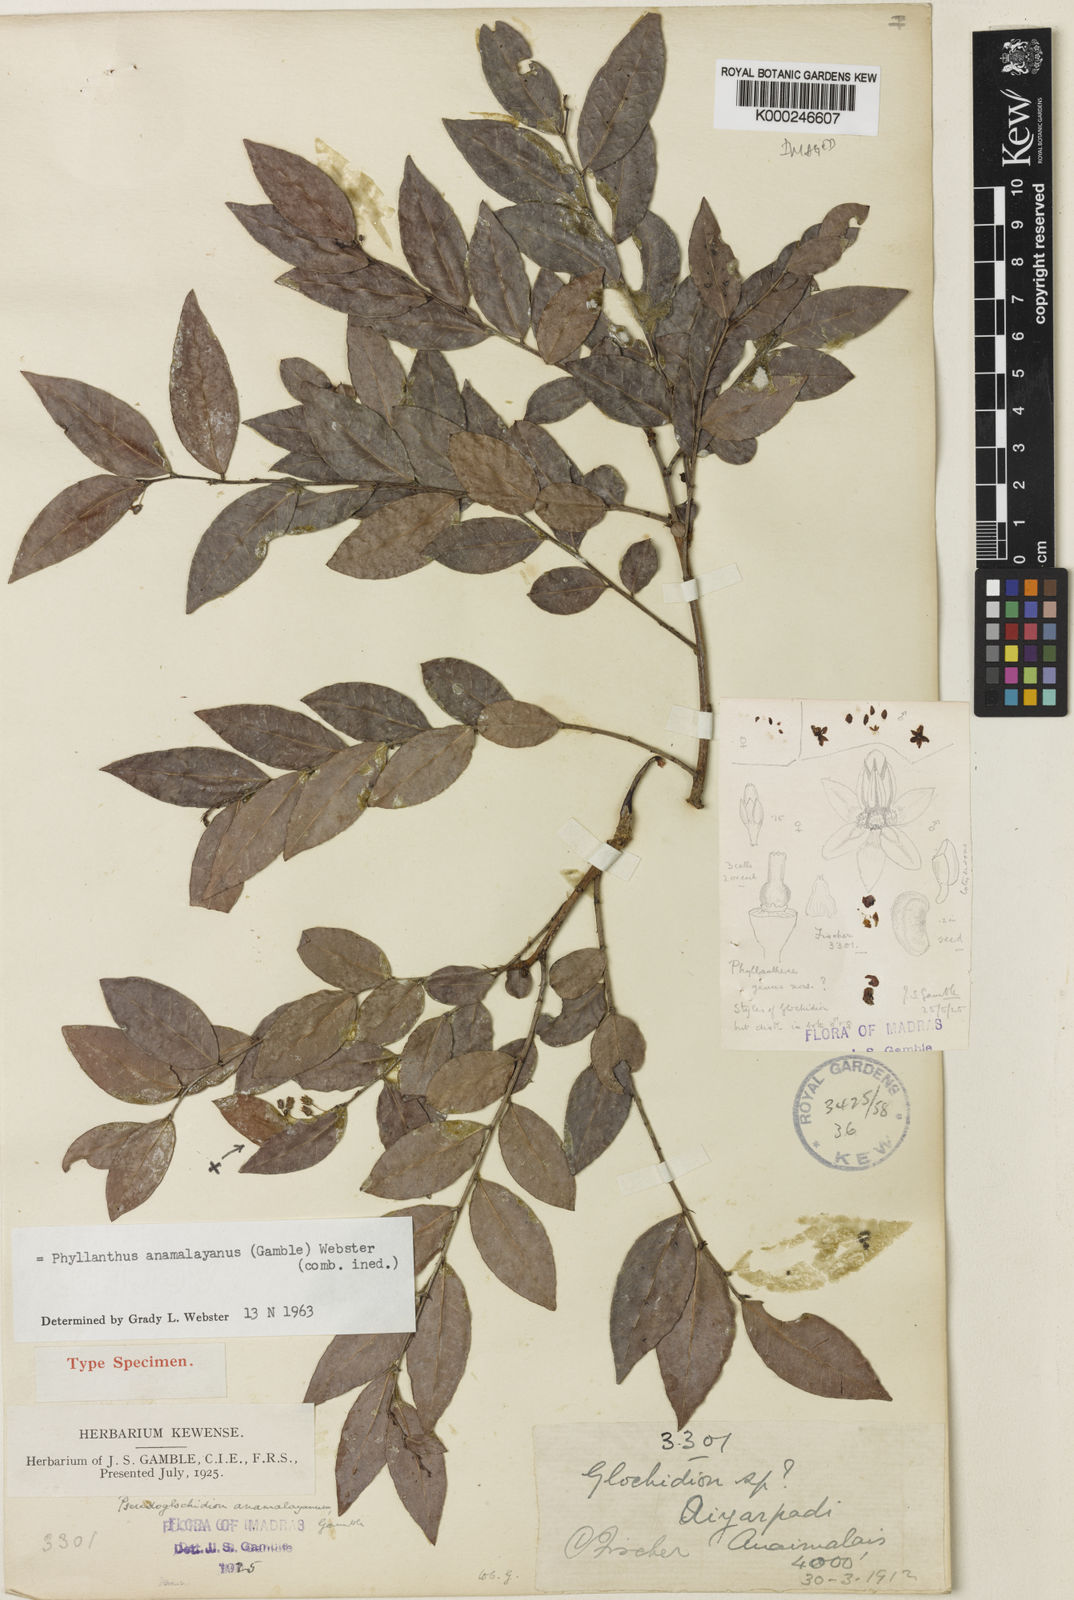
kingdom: Plantae
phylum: Tracheophyta
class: Magnoliopsida
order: Malpighiales
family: Phyllanthaceae
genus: Phyllanthus
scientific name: Phyllanthus anamalayanus
